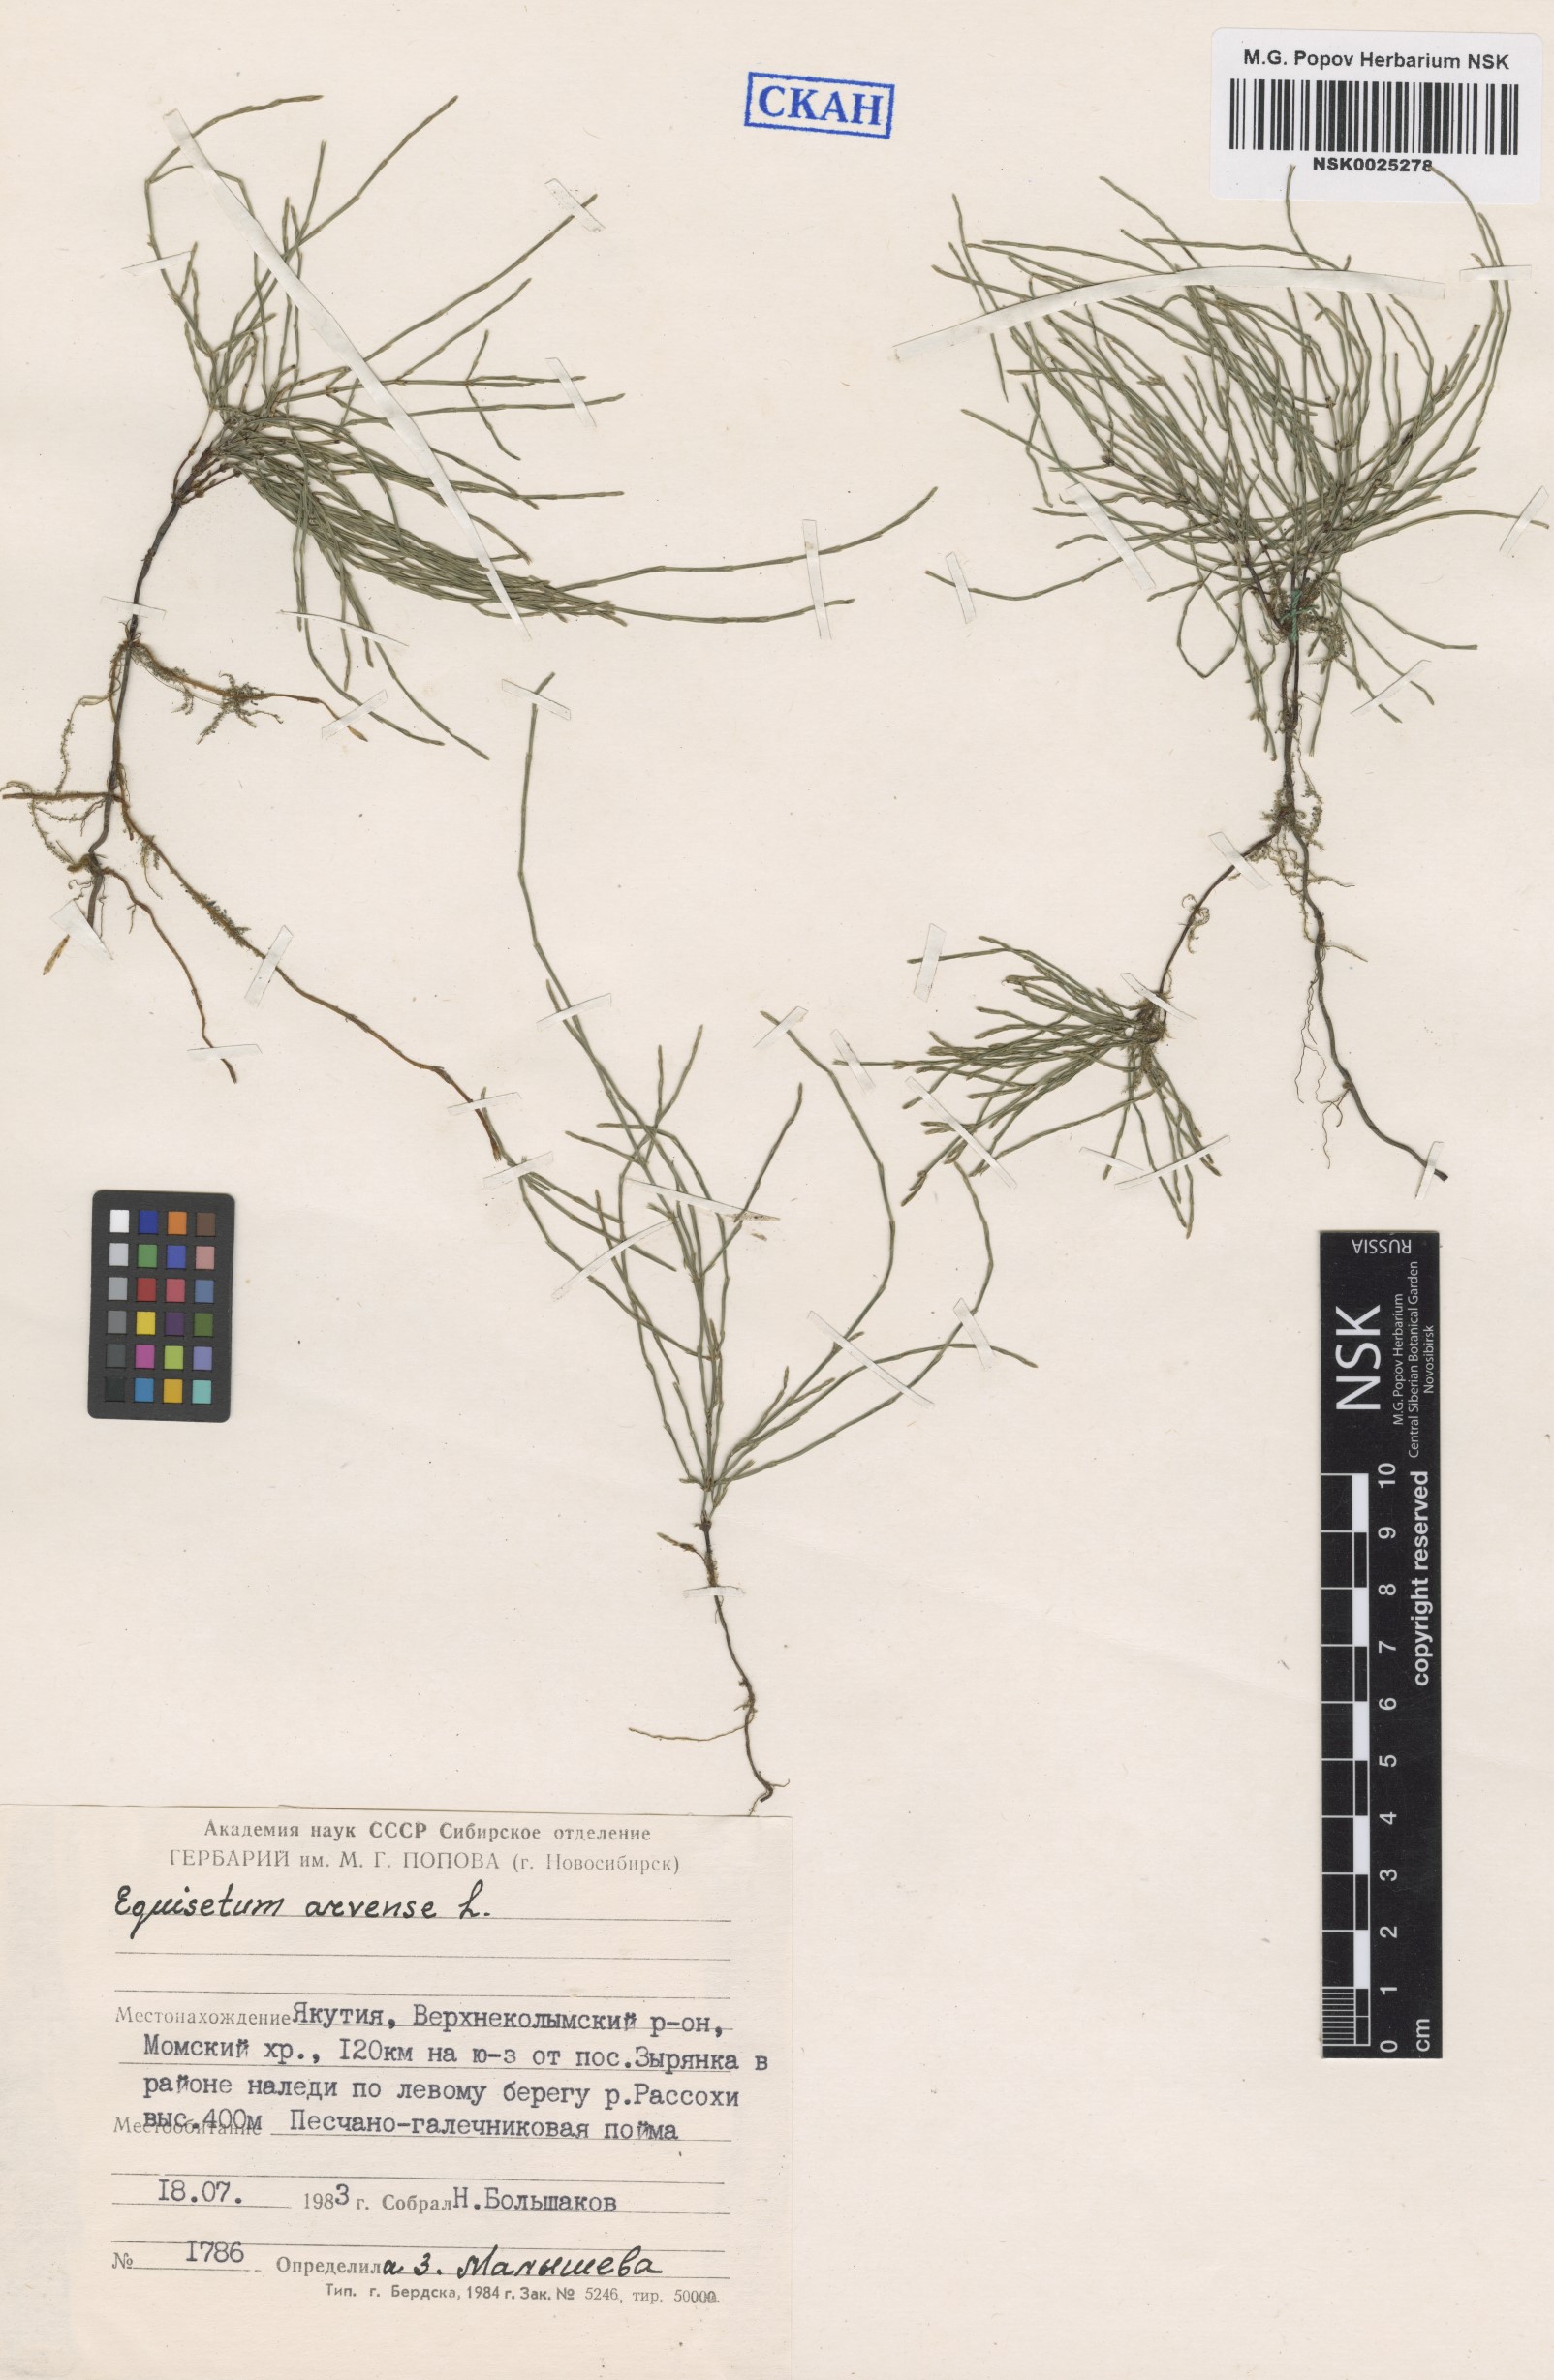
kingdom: Plantae
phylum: Tracheophyta
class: Polypodiopsida
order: Equisetales
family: Equisetaceae
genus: Equisetum
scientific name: Equisetum arvense
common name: Field horsetail
